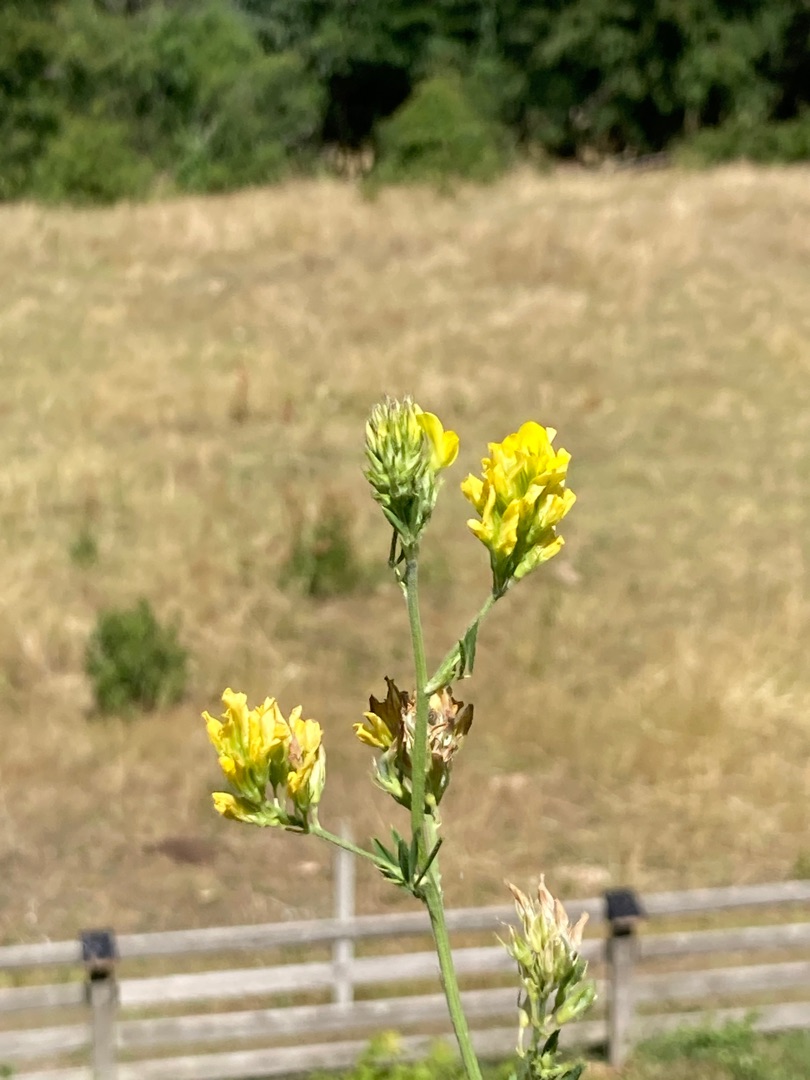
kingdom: Plantae
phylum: Tracheophyta
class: Magnoliopsida
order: Fabales
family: Fabaceae
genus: Medicago
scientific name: Medicago falcata
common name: Segl-sneglebælg
